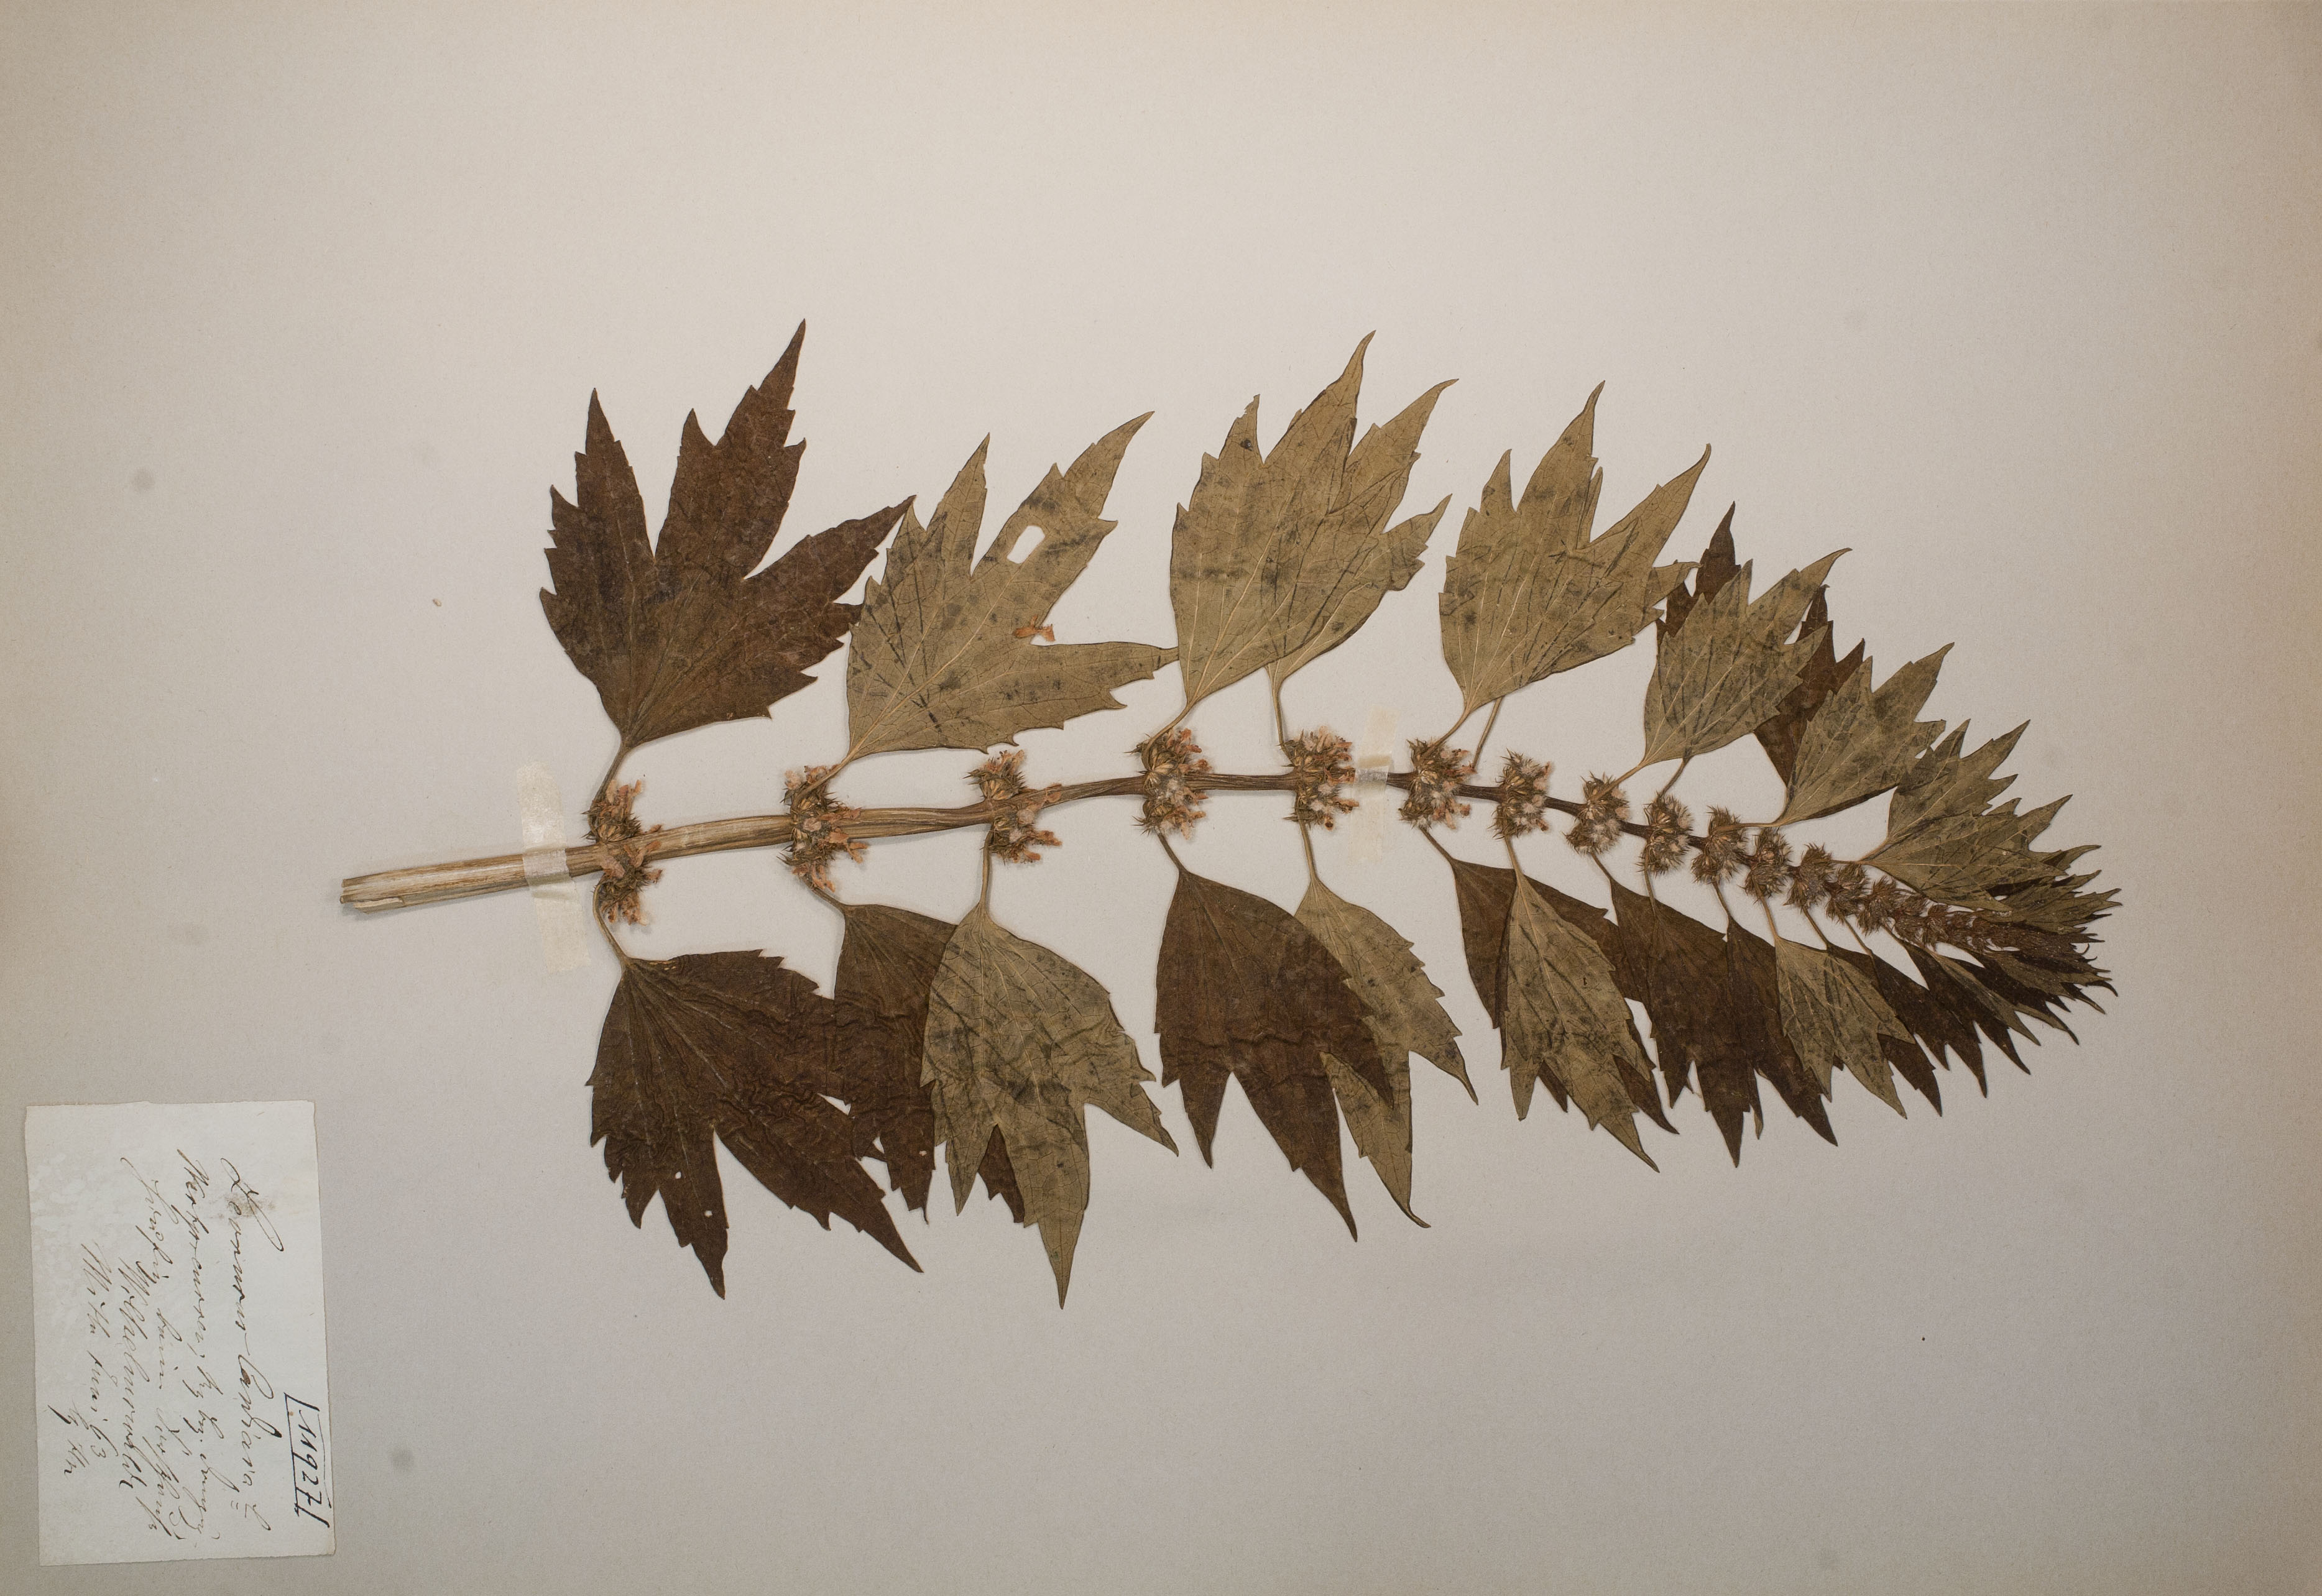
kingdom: Plantae
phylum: Tracheophyta
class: Magnoliopsida
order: Lamiales
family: Lamiaceae
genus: Leonurus
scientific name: Leonurus cardiaca
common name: Motherwort
